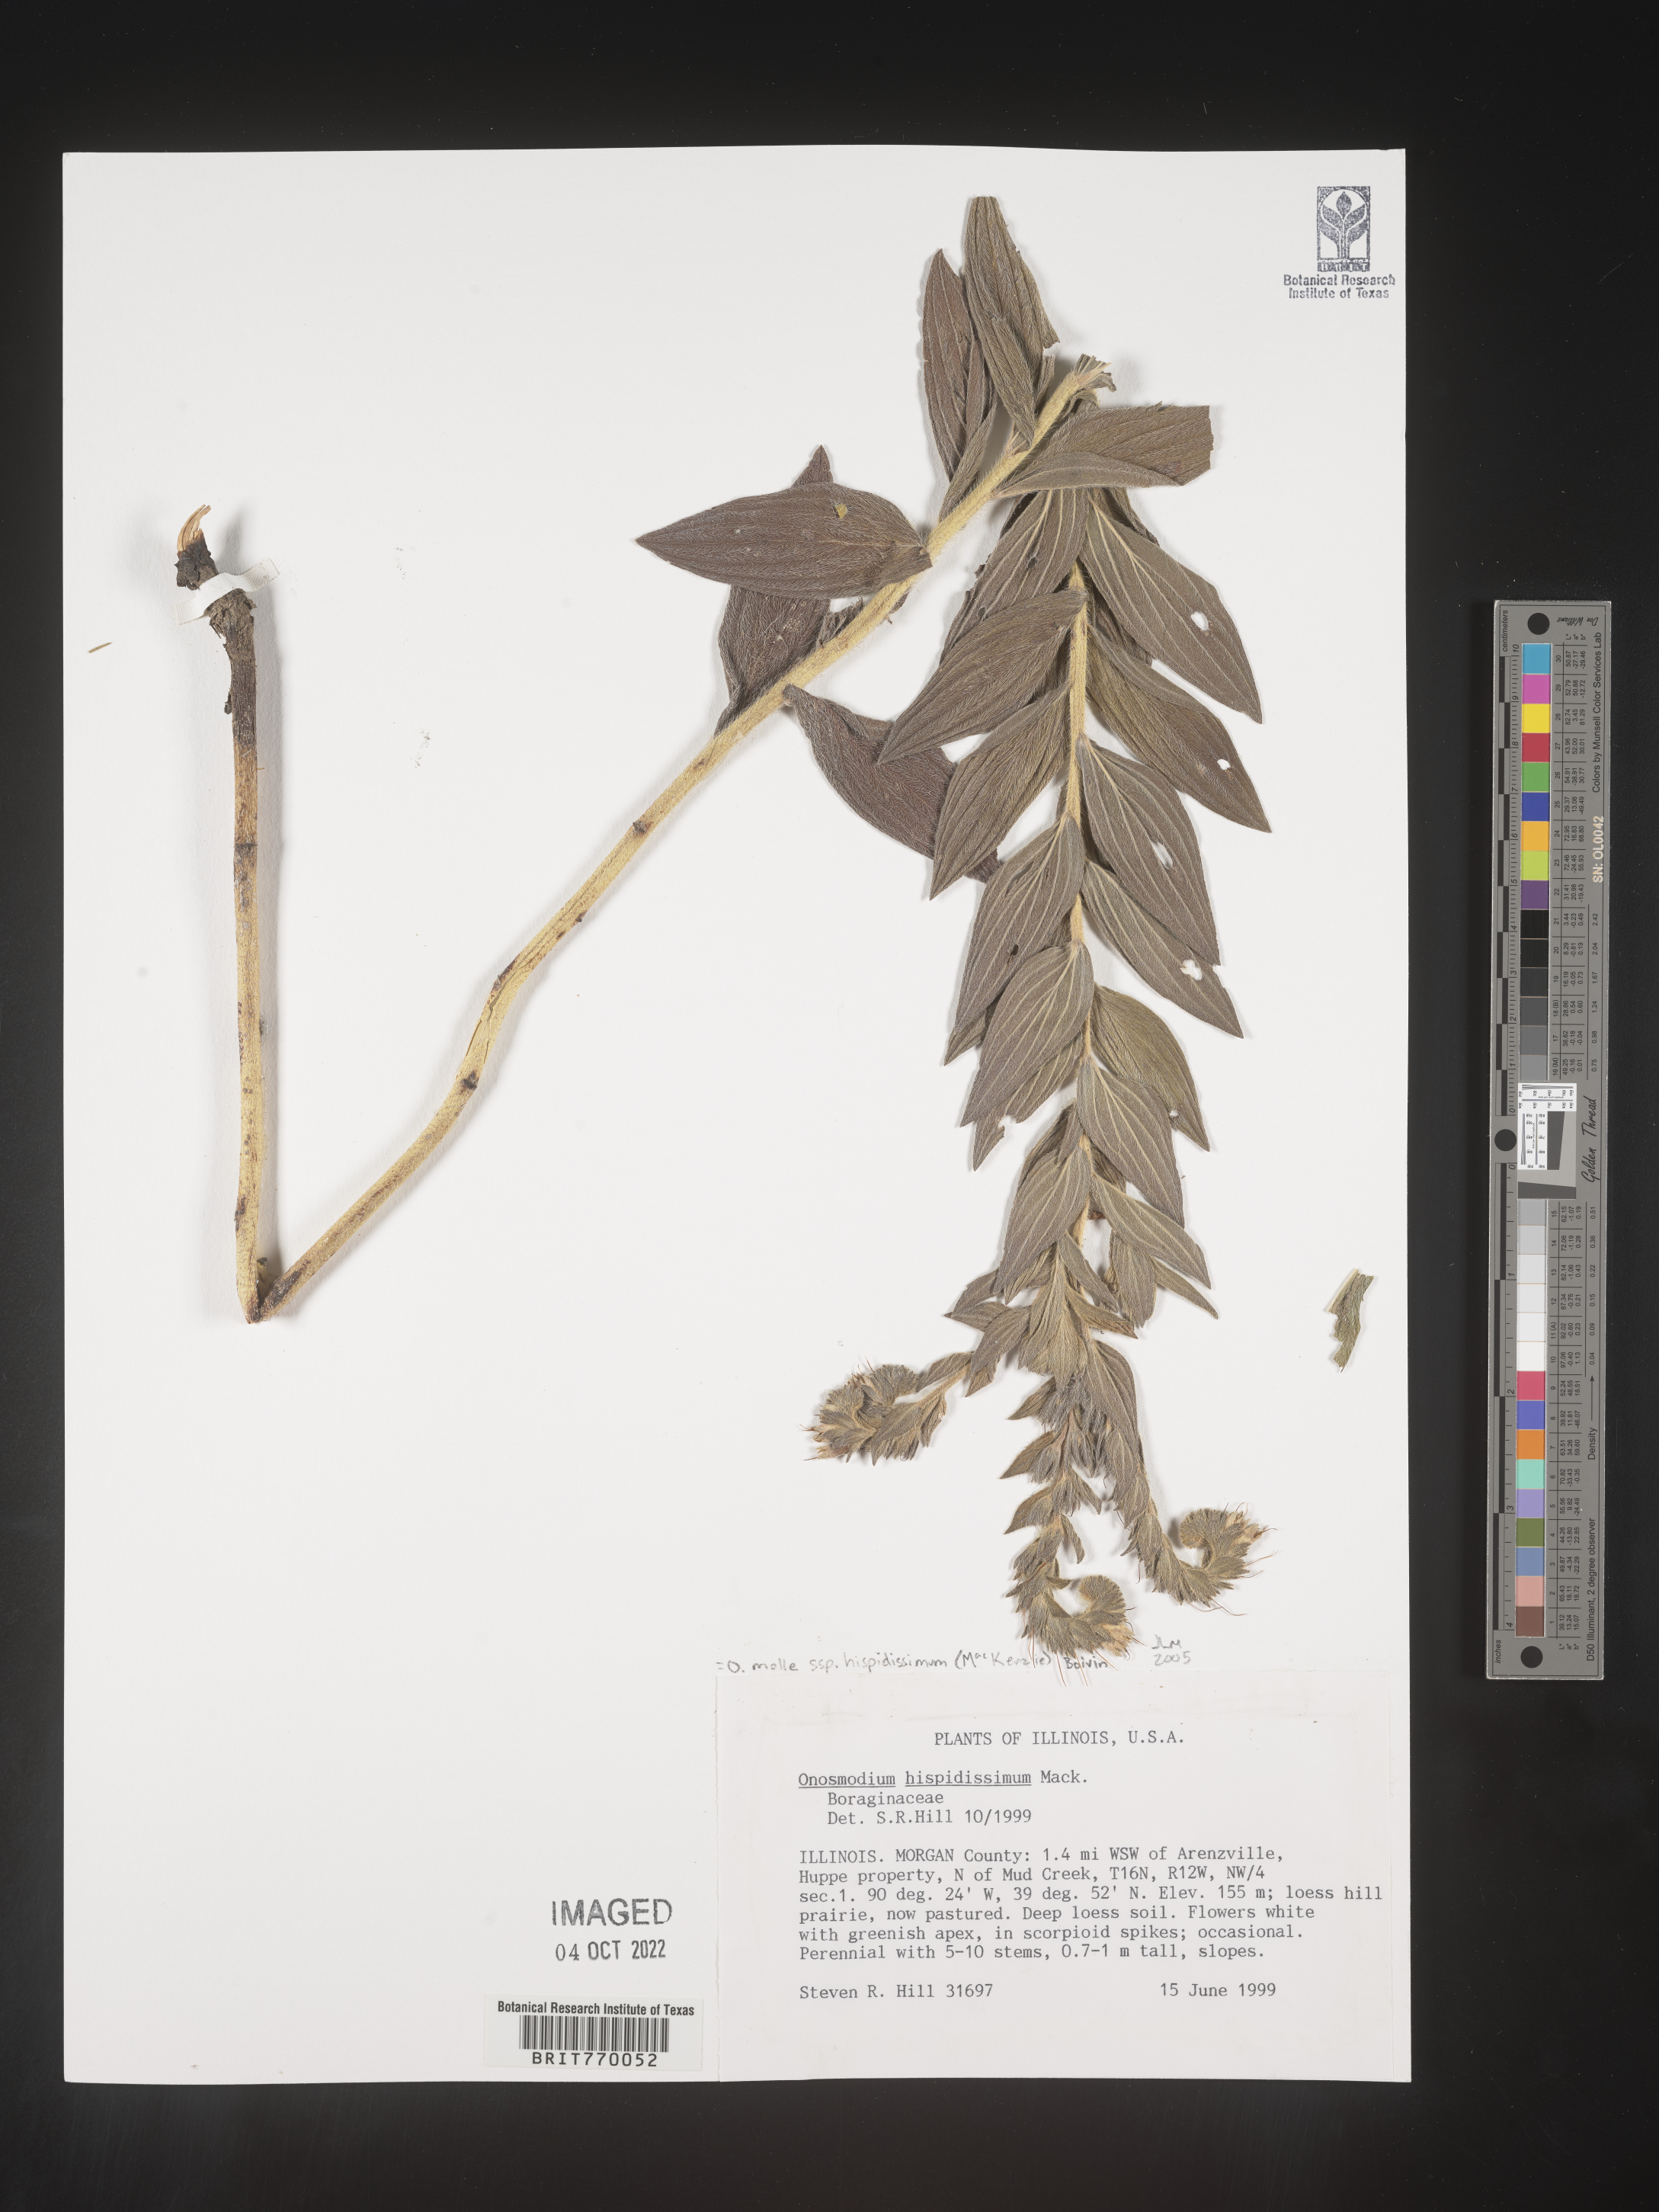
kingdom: Plantae
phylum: Tracheophyta
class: Magnoliopsida
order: Boraginales
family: Boraginaceae
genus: Lithospermum
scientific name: Lithospermum parviflorum
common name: Hairy false gromwell
